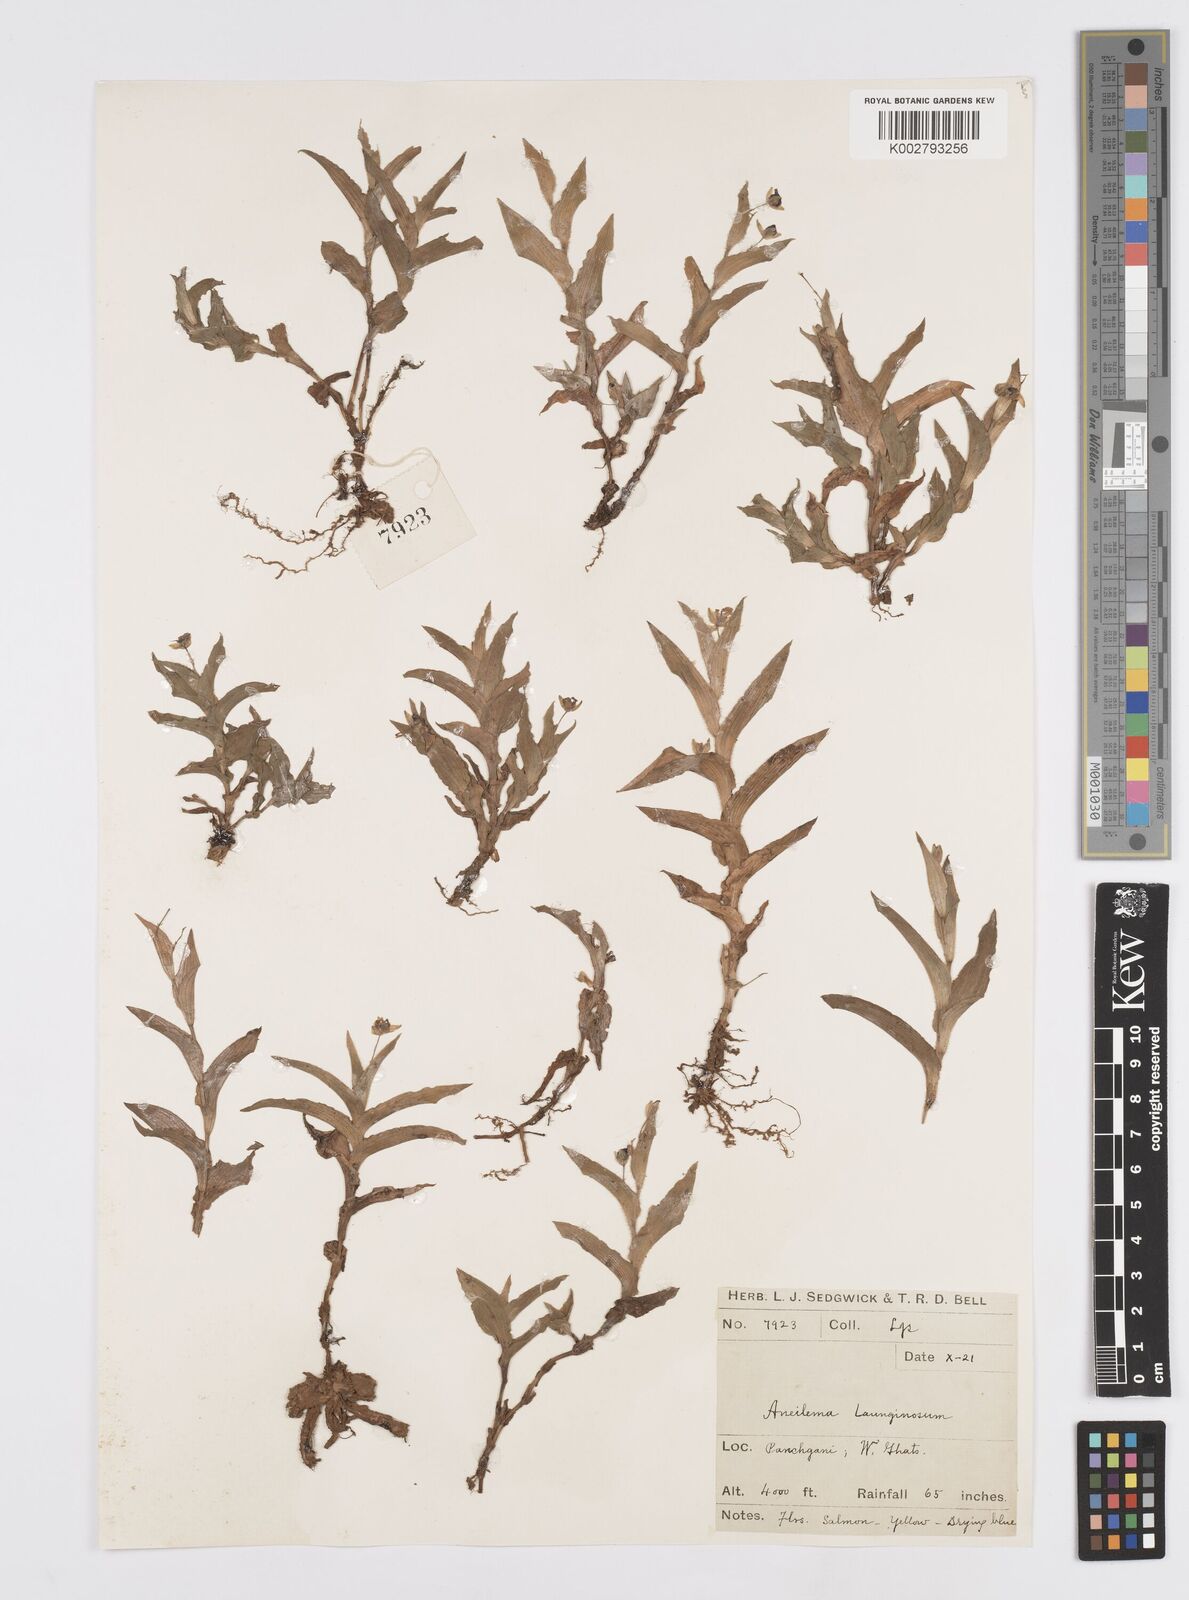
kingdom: Plantae
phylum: Tracheophyta
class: Liliopsida
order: Commelinales
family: Commelinaceae
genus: Murdannia
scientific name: Murdannia lanuginosa
